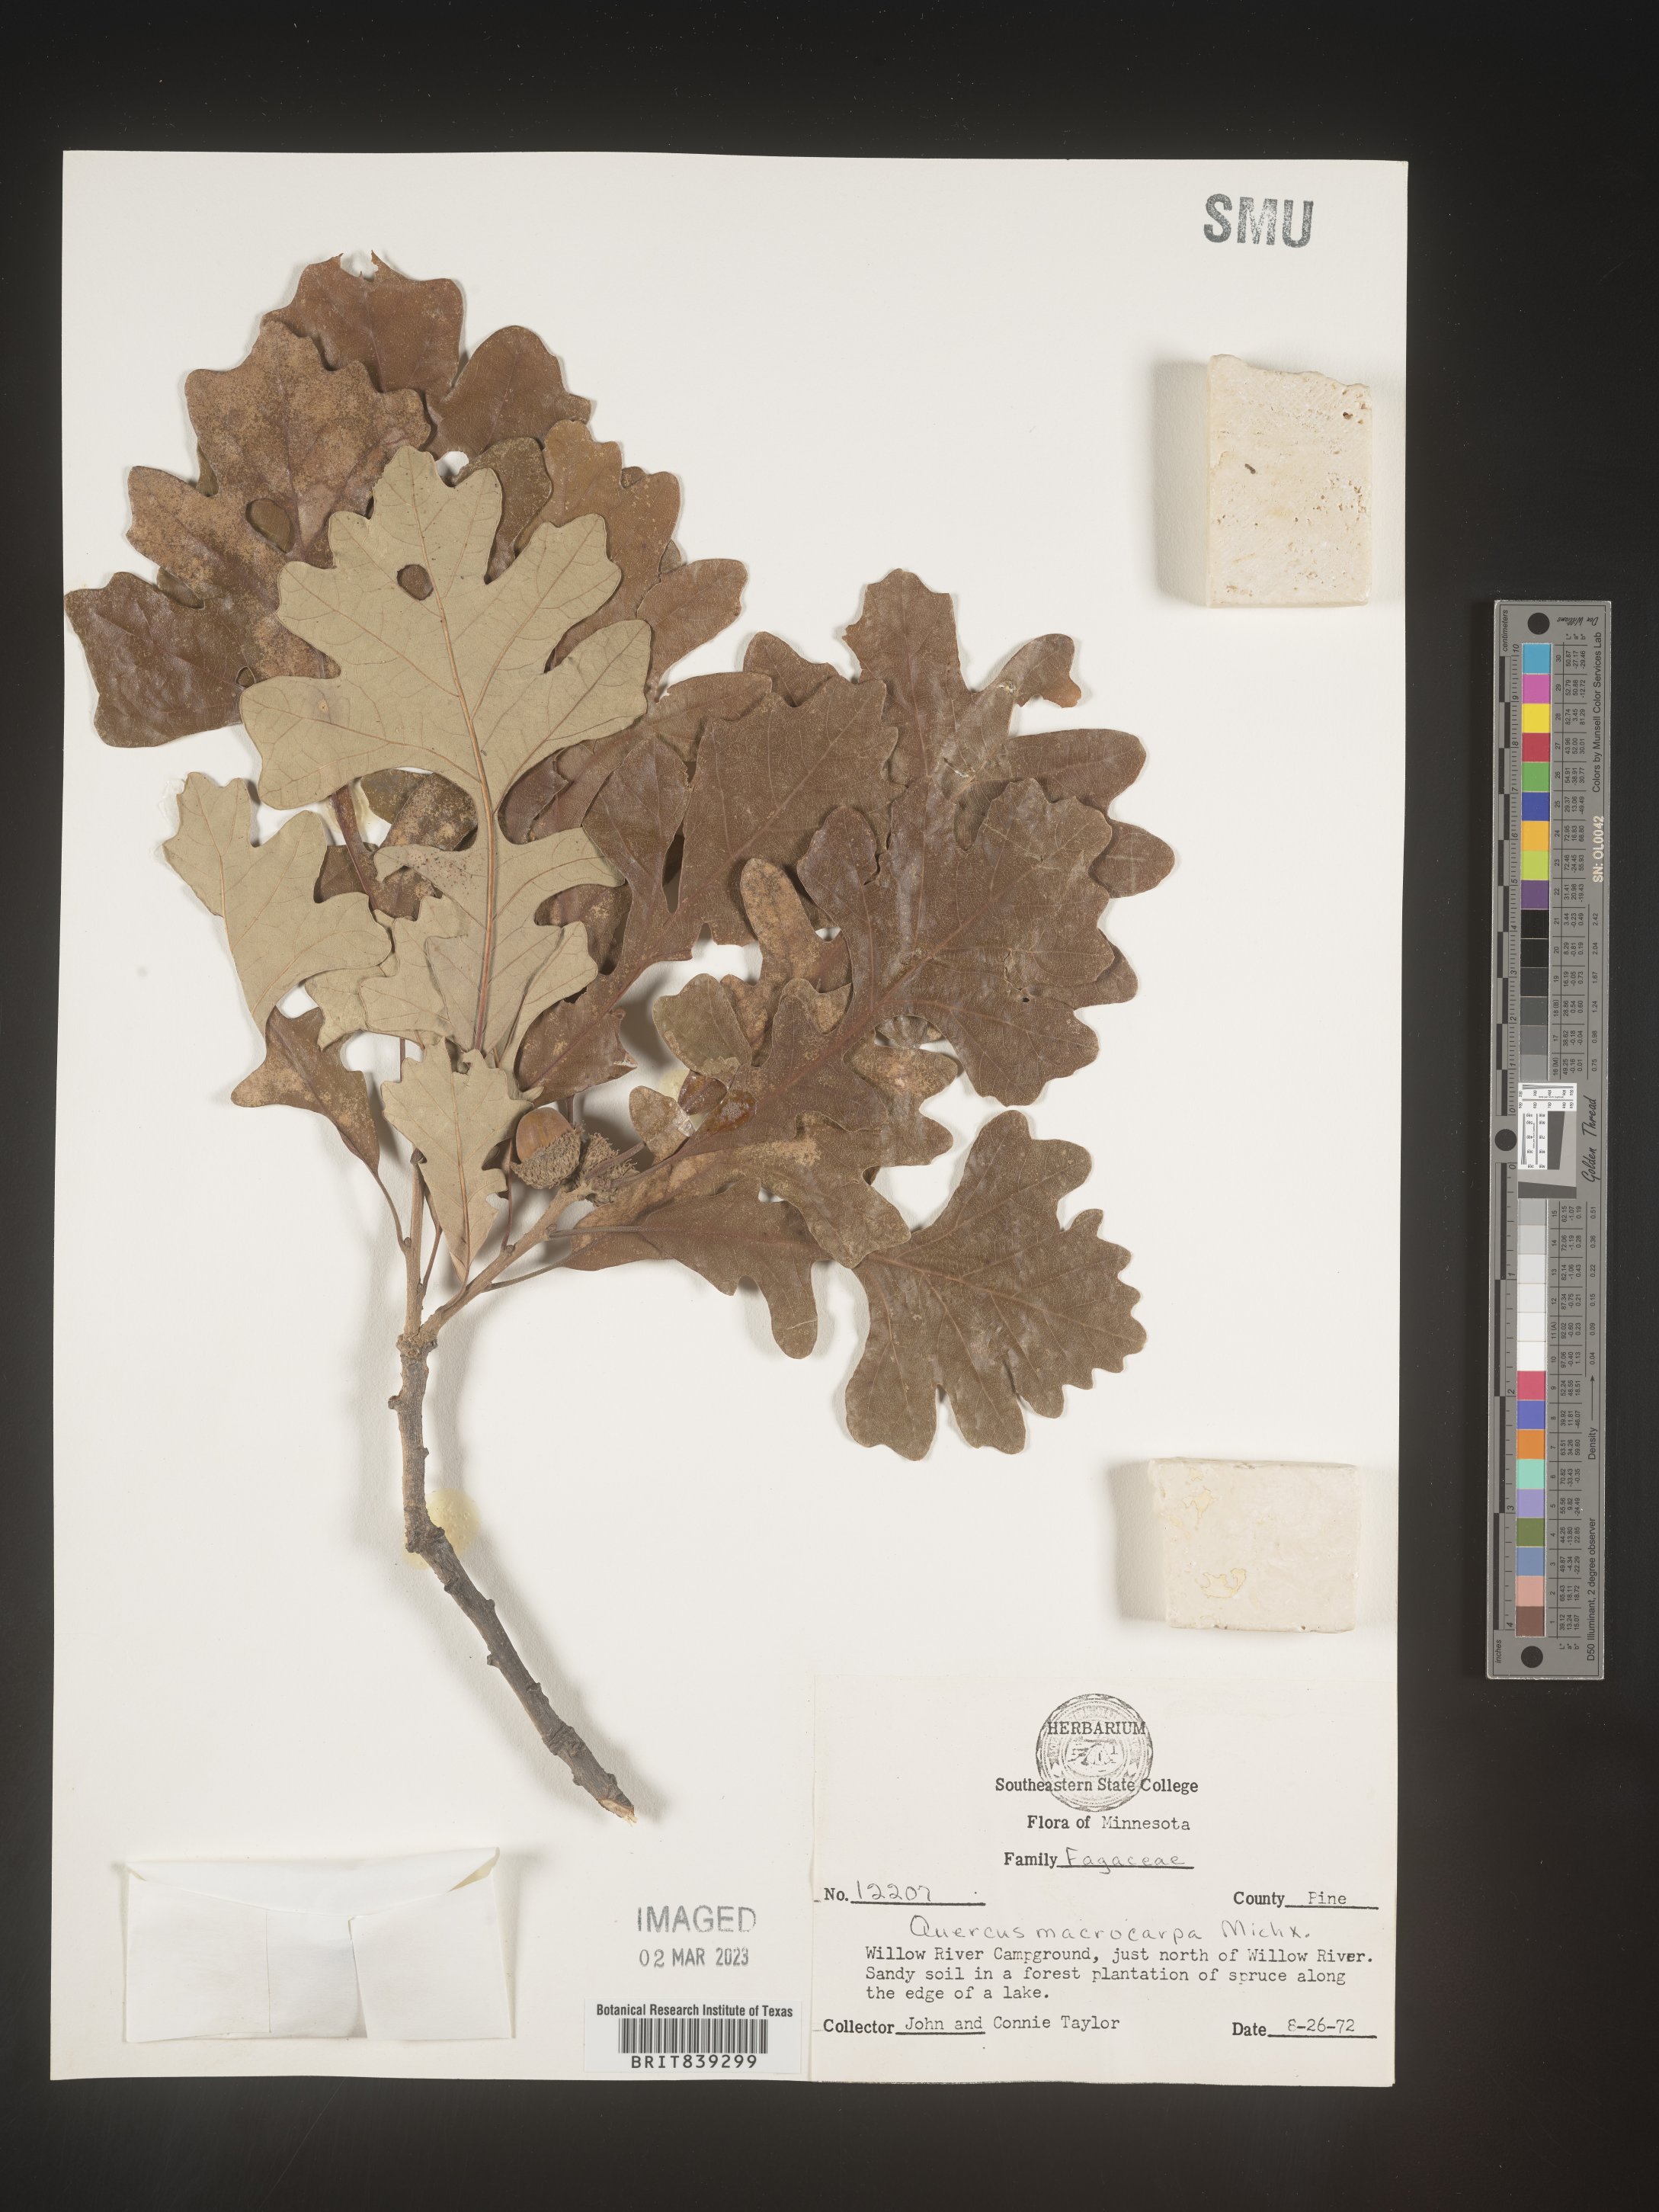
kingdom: Plantae
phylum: Tracheophyta
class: Magnoliopsida
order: Fagales
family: Fagaceae
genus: Quercus
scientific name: Quercus macrocarpa
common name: Bur oak
